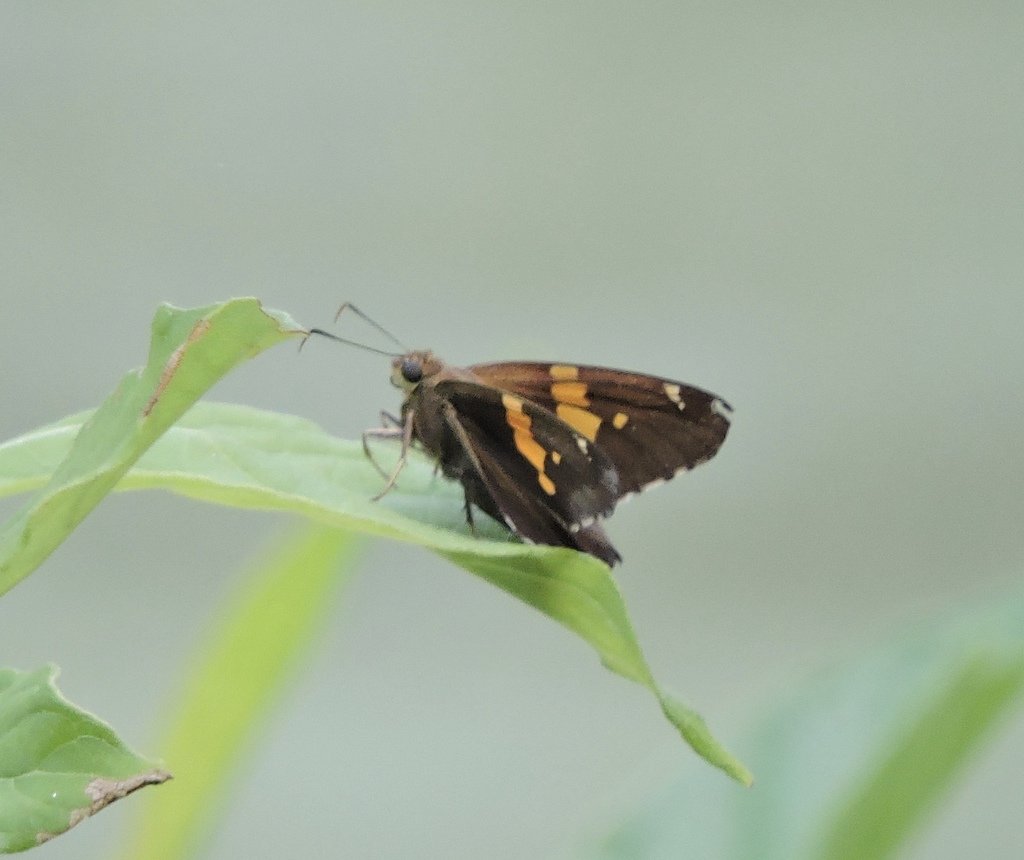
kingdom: Animalia
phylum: Arthropoda
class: Insecta
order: Lepidoptera
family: Hesperiidae
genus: Epargyreus
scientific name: Epargyreus clarus
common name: Silver-spotted Skipper
